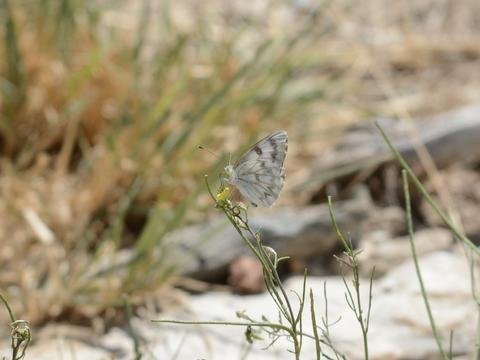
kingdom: Animalia
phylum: Arthropoda
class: Insecta
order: Lepidoptera
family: Pieridae
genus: Pontia
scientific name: Pontia protodice
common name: Checkered White
